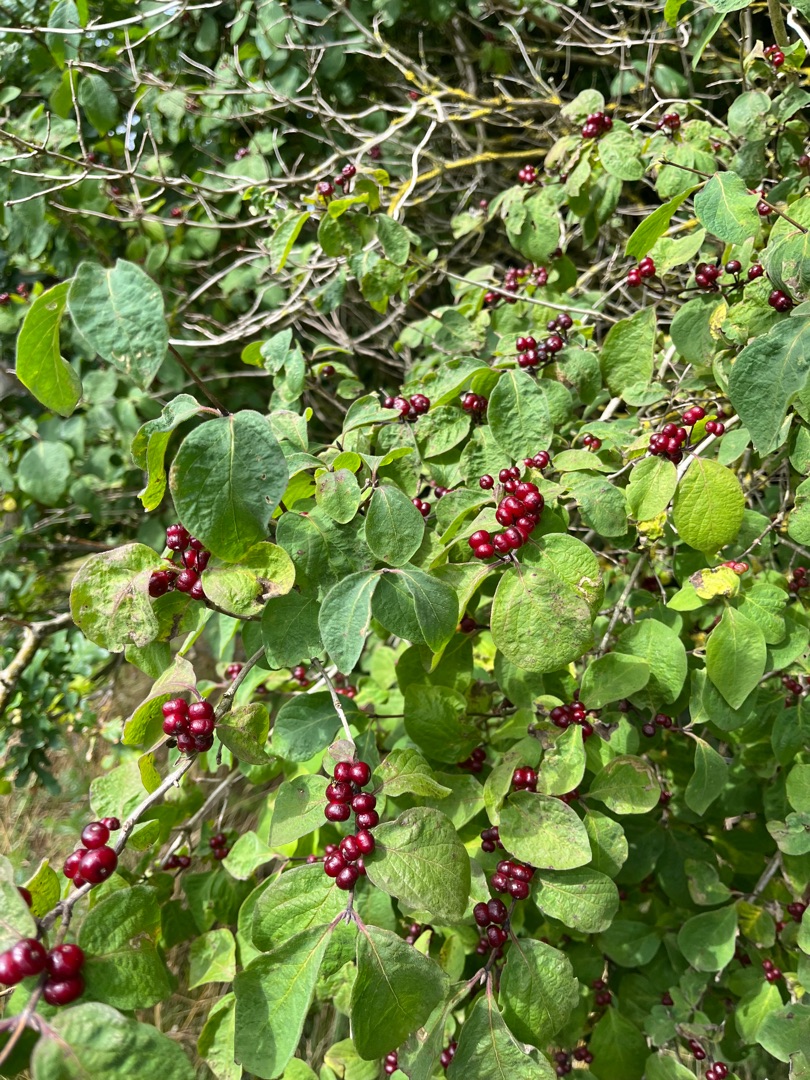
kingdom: Plantae
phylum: Tracheophyta
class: Magnoliopsida
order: Dipsacales
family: Caprifoliaceae
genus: Lonicera
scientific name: Lonicera xylosteum
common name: Dunet gedeblad
